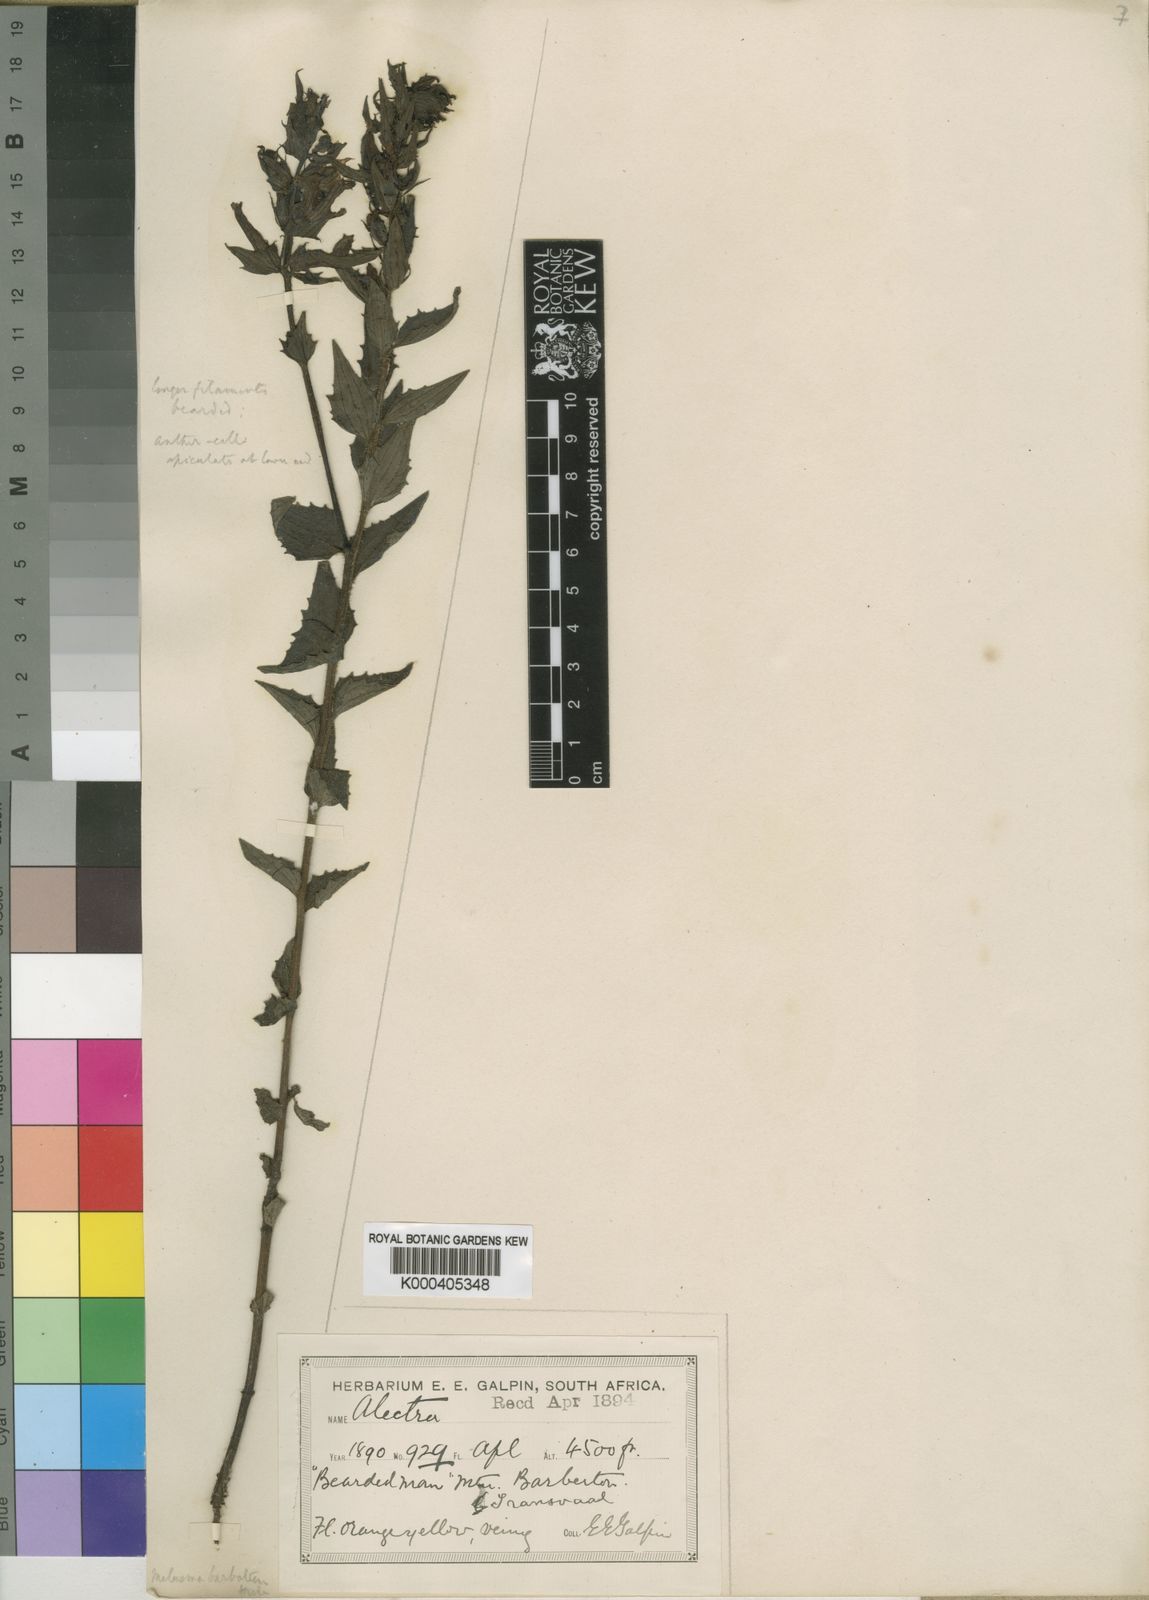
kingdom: Plantae
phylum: Tracheophyta
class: Magnoliopsida
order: Lamiales
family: Orobanchaceae
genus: Alectra
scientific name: Alectra sessiliflora
